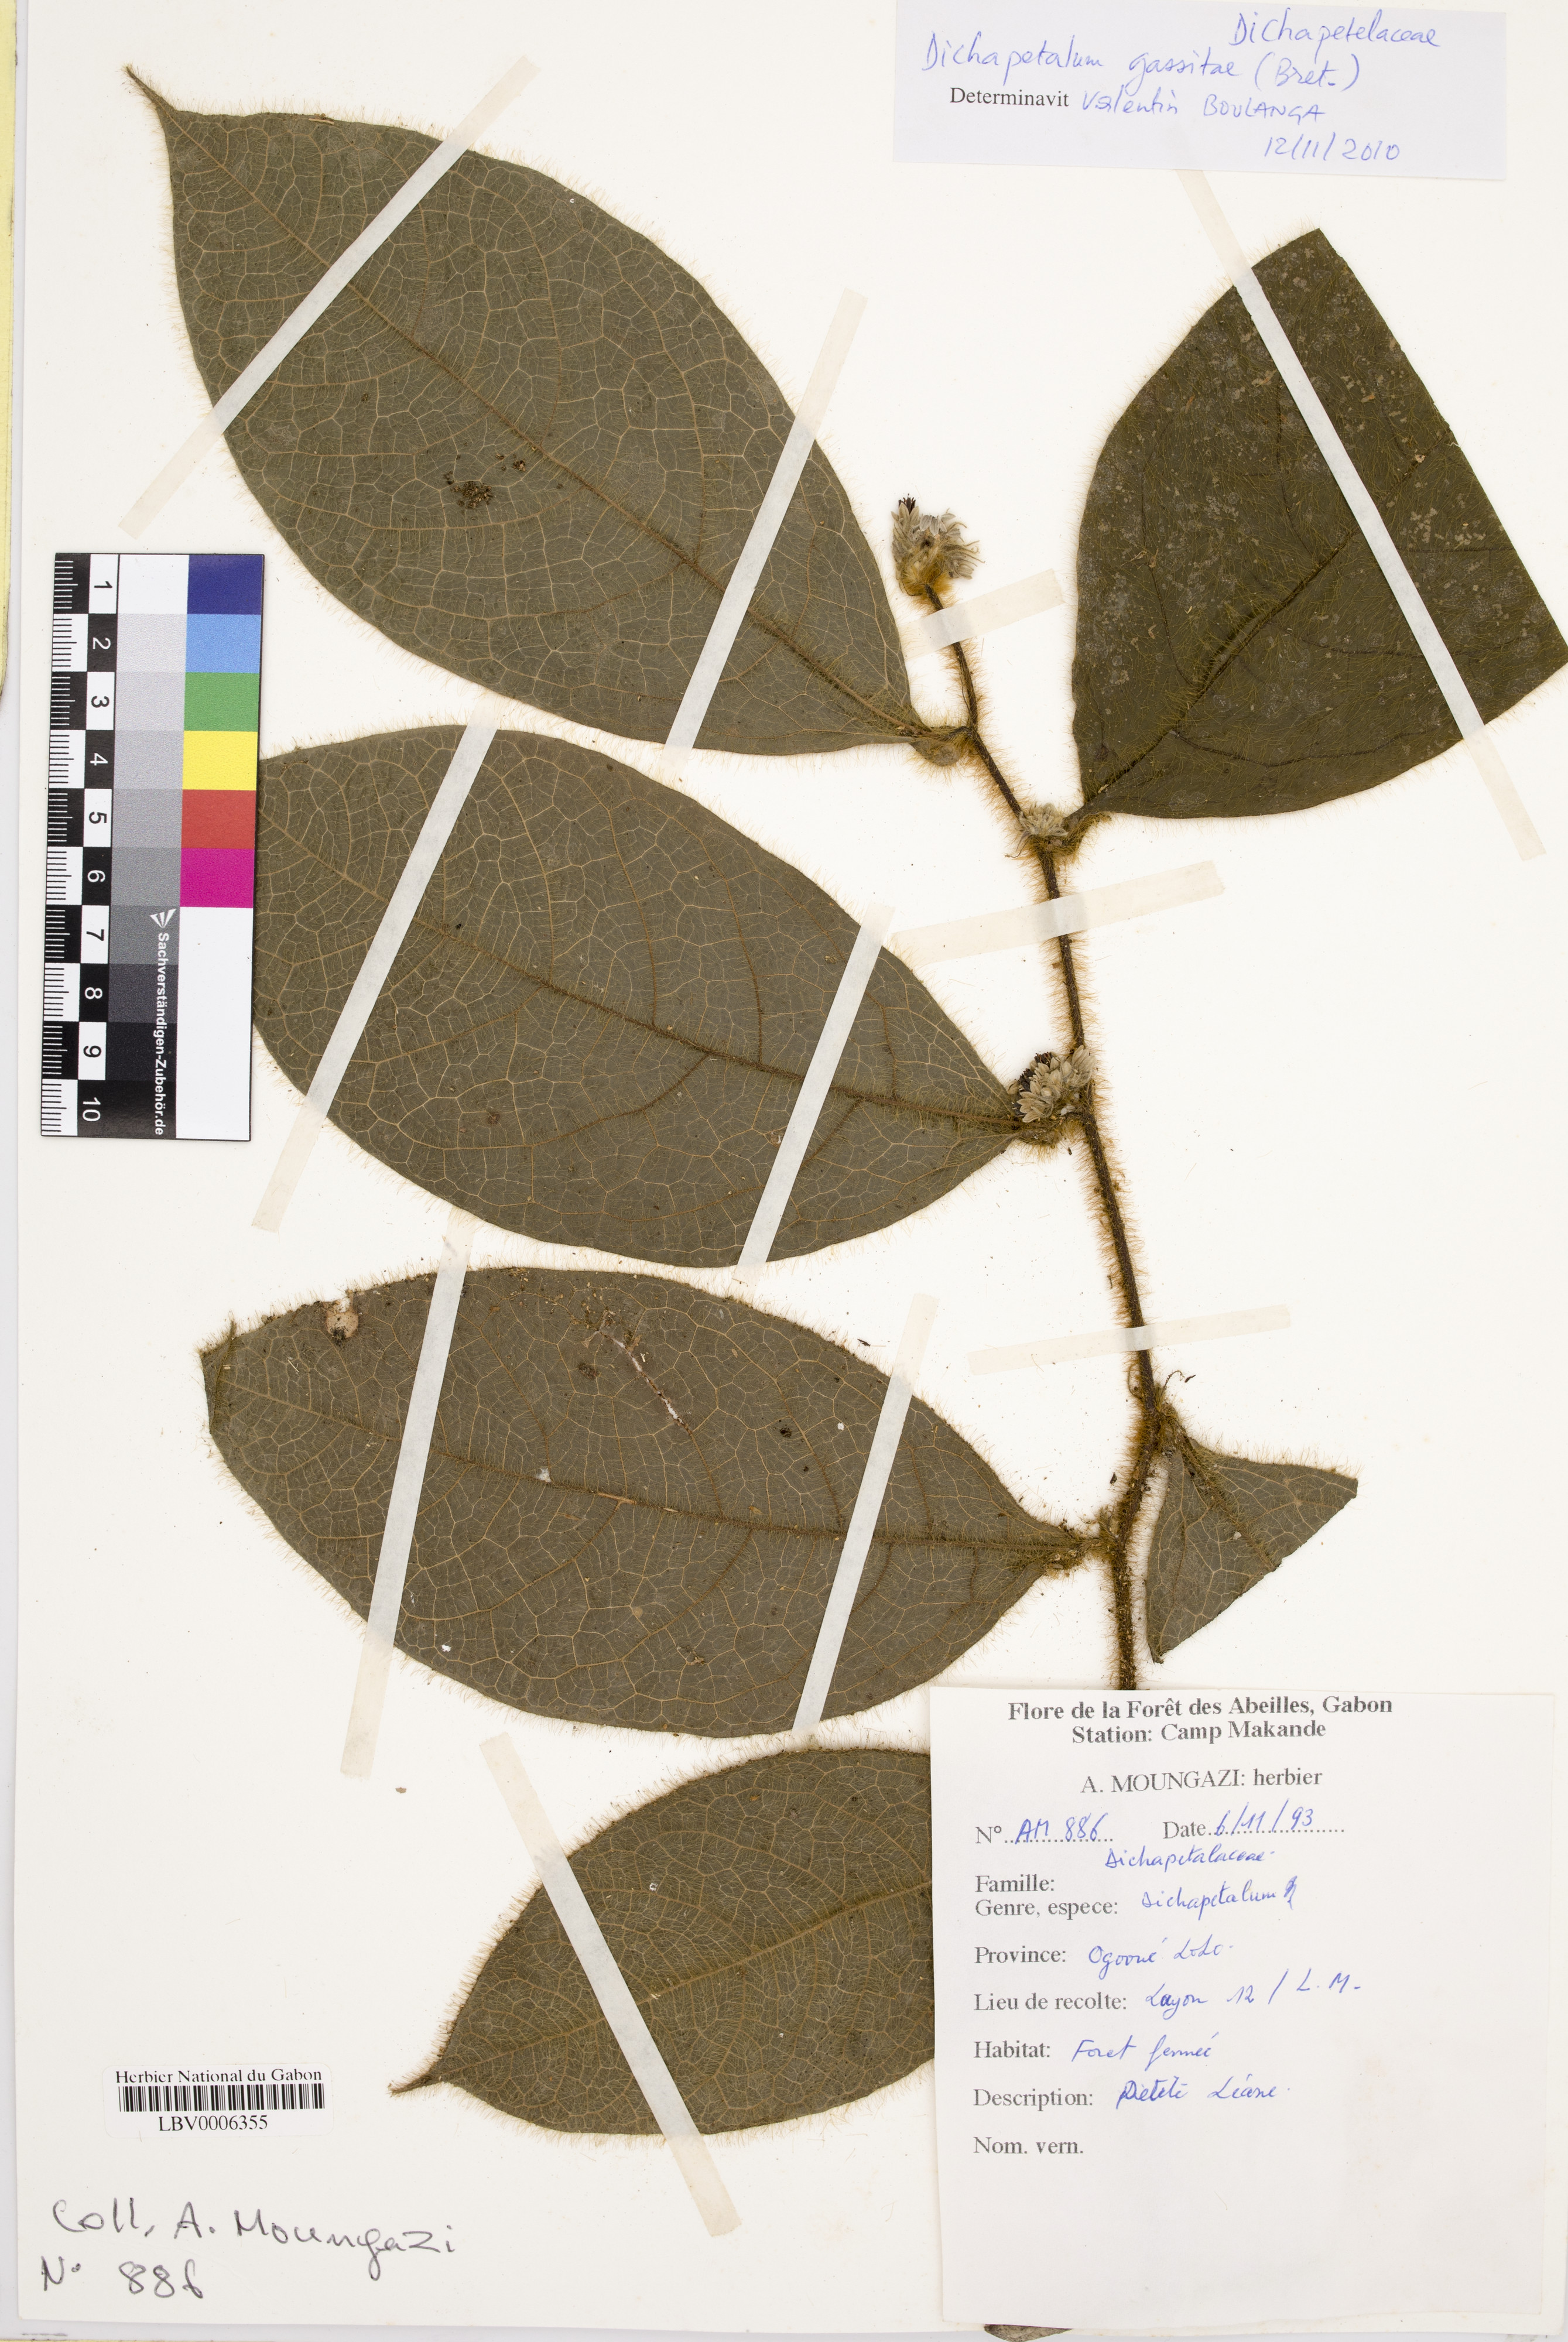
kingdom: Plantae
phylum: Tracheophyta
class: Magnoliopsida
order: Malpighiales
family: Dichapetalaceae
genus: Dichapetalum
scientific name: Dichapetalum
